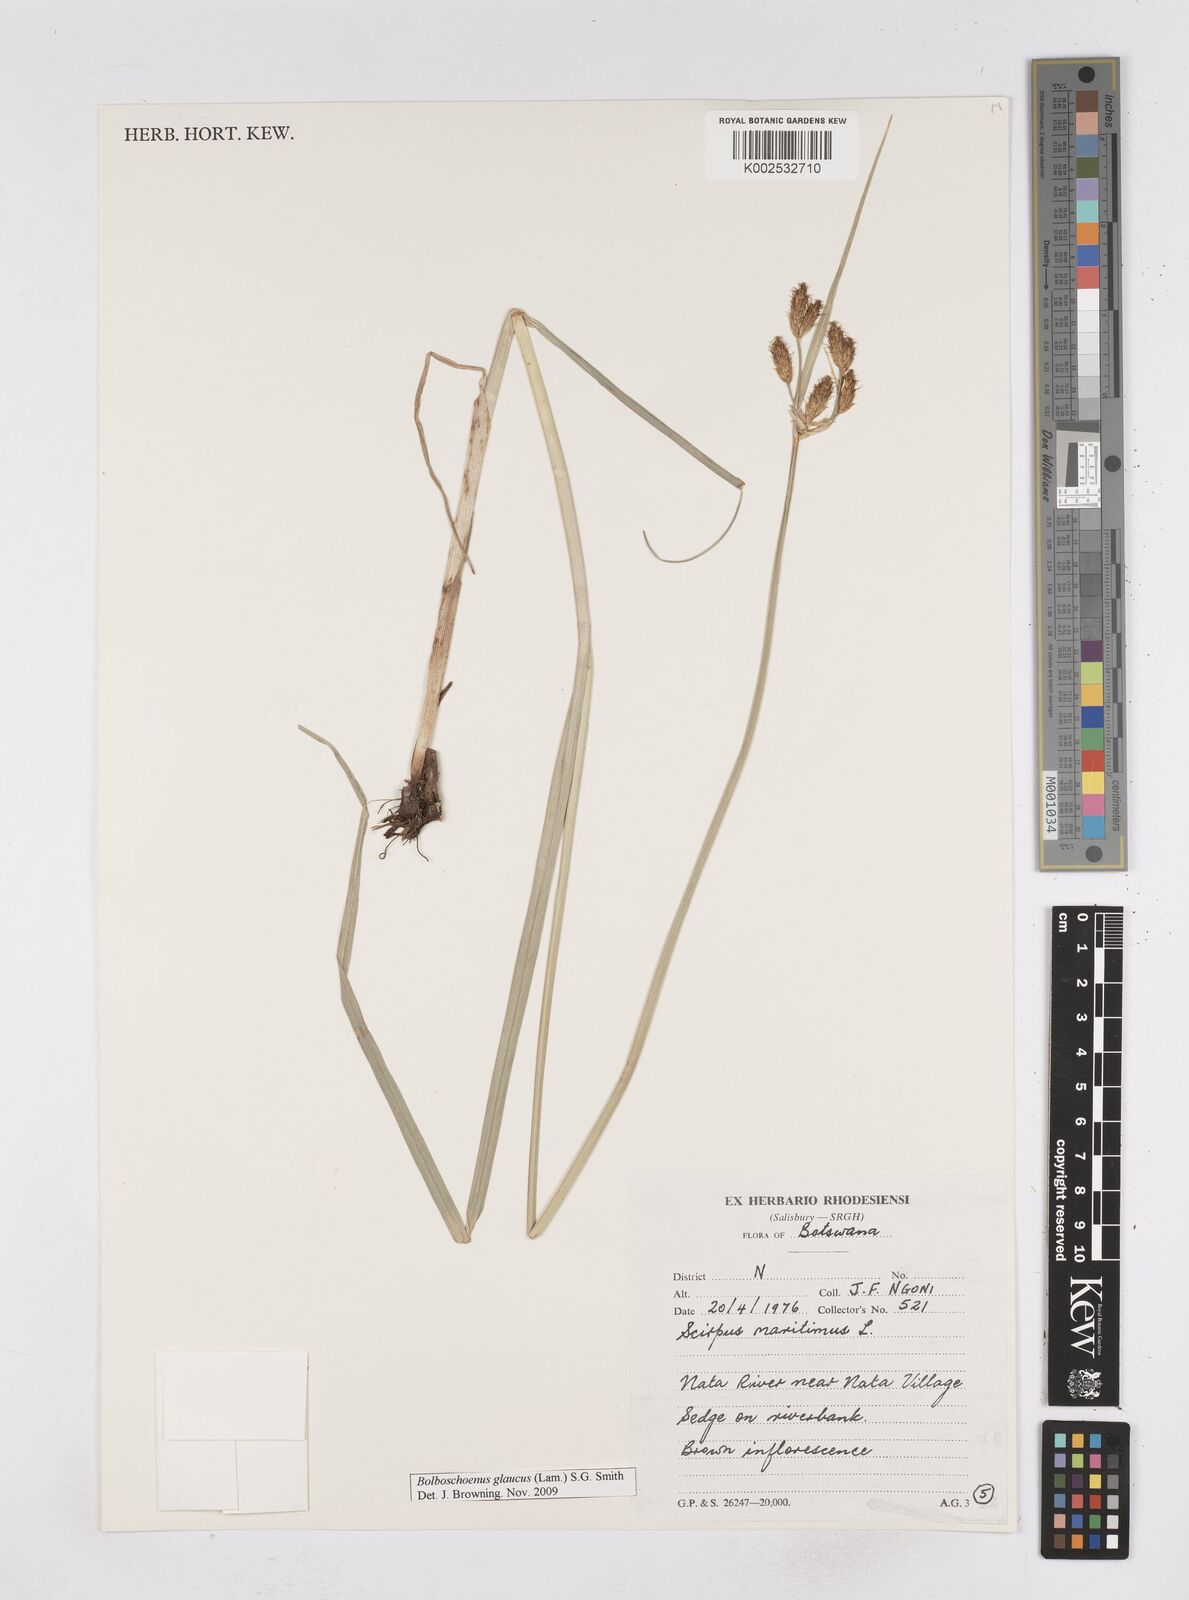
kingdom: Plantae
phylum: Tracheophyta
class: Liliopsida
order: Poales
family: Cyperaceae
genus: Bolboschoenus
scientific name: Bolboschoenus glaucus
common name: Tuberous bulrush
